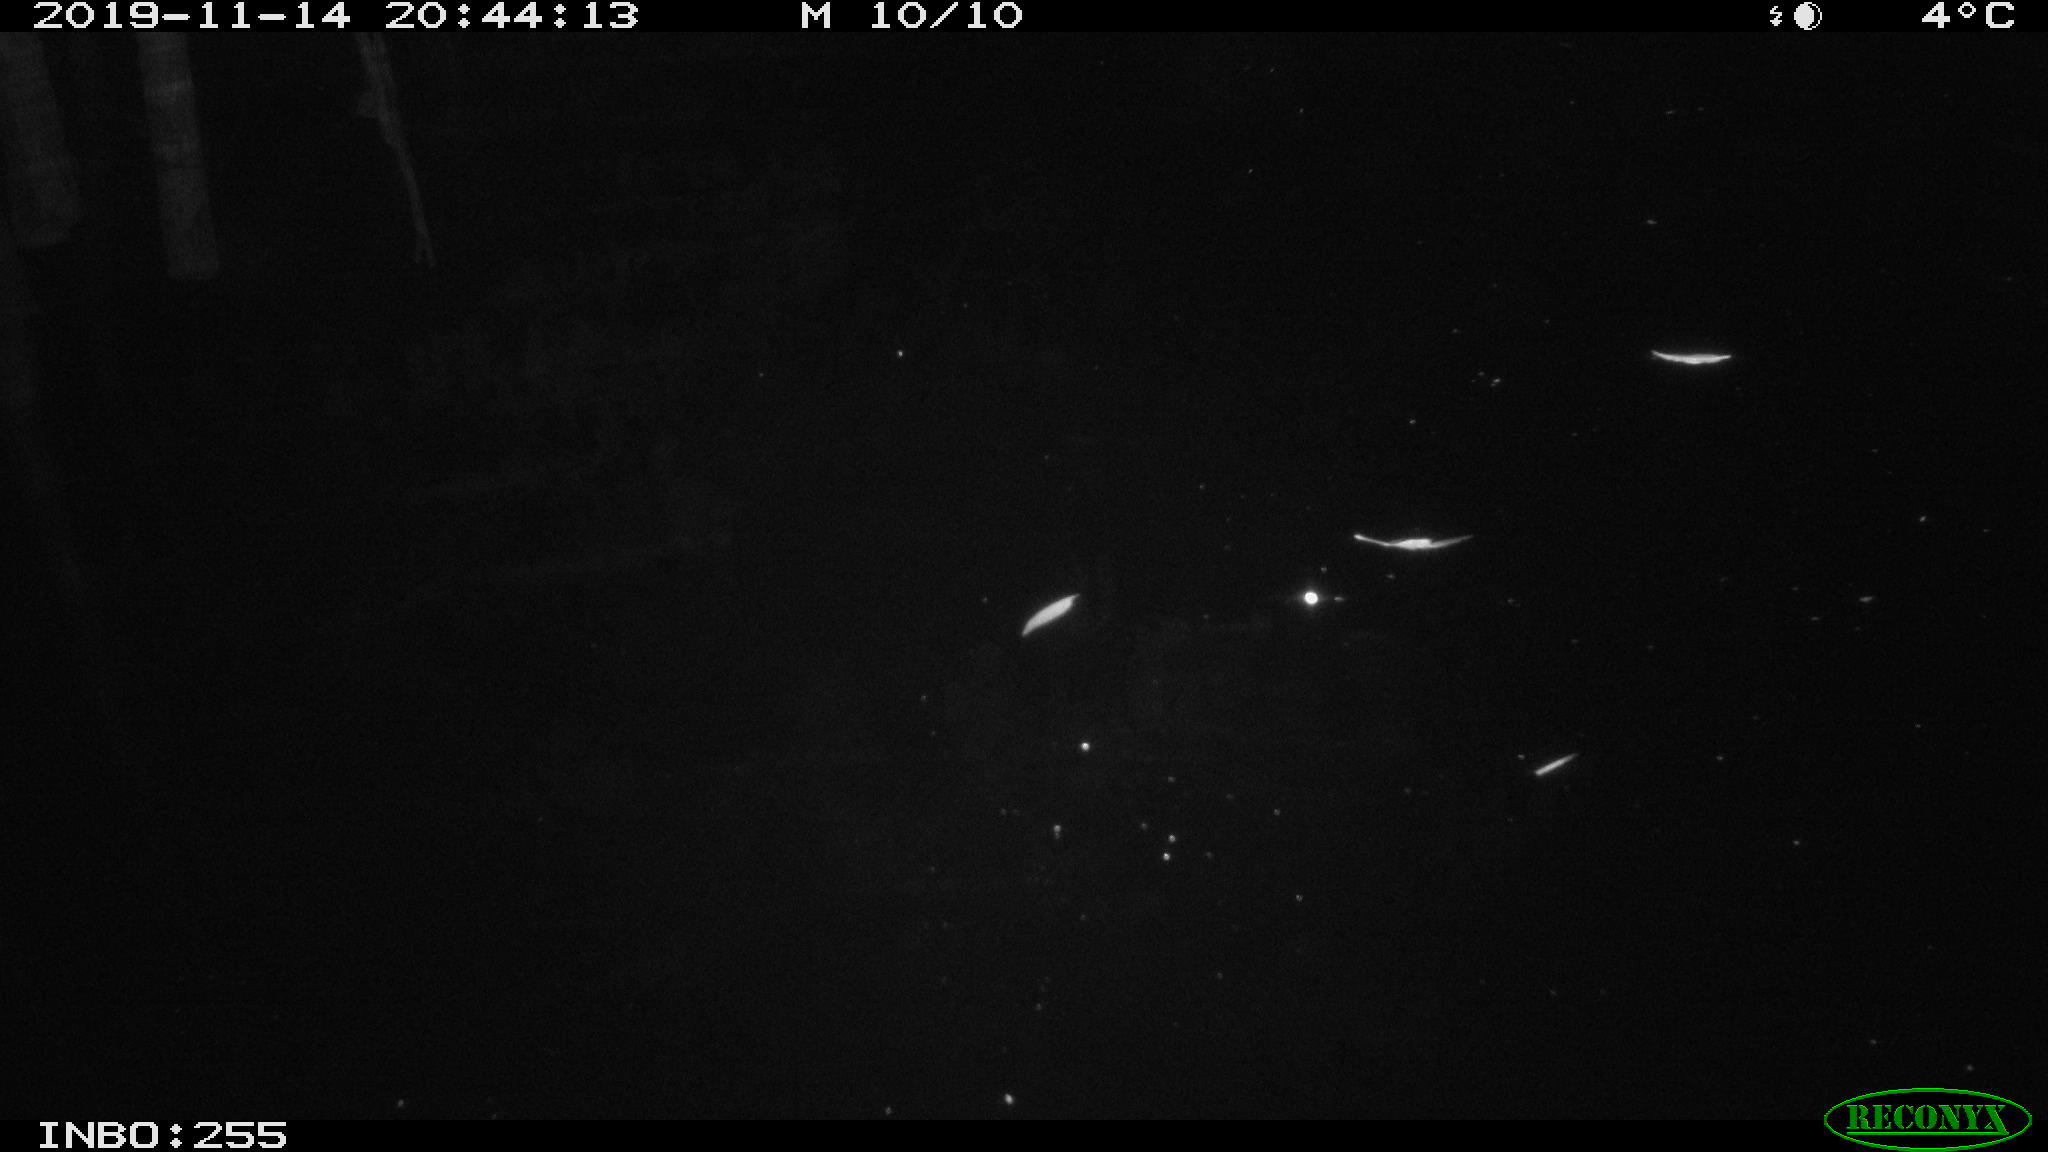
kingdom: Animalia
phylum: Chordata
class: Mammalia
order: Rodentia
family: Muridae
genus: Rattus
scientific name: Rattus norvegicus
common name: Brown rat
